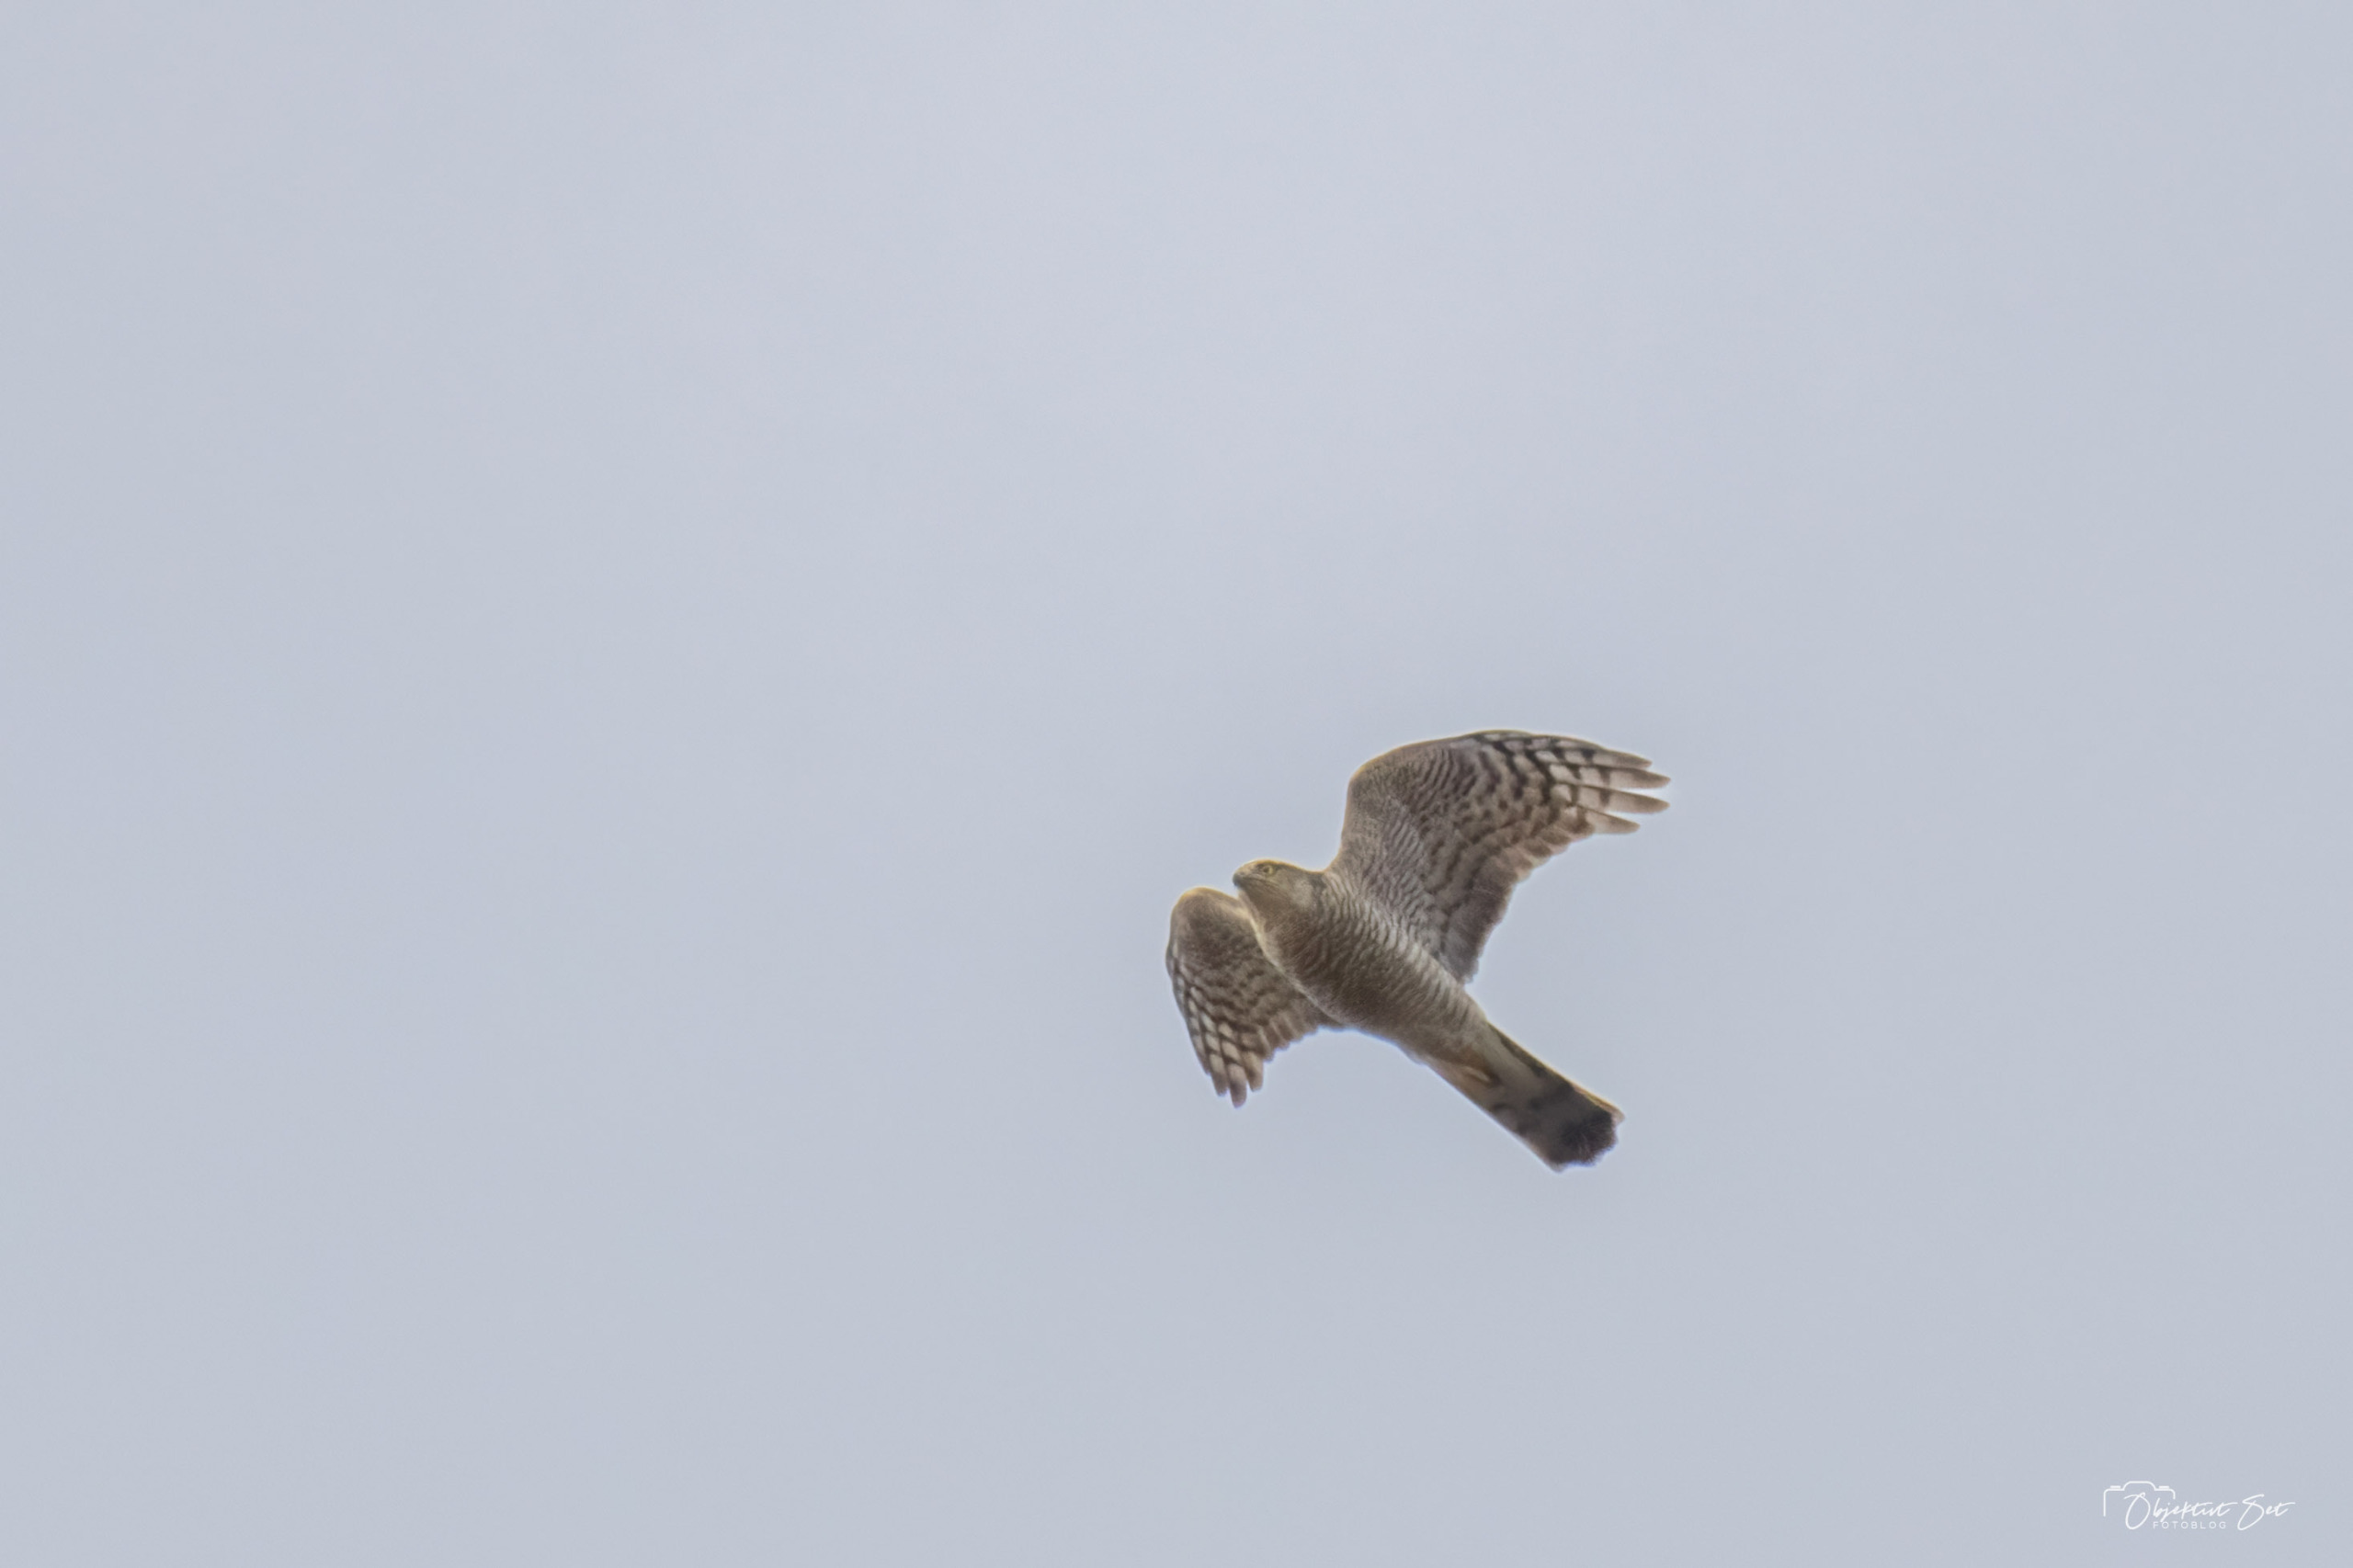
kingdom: Animalia
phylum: Chordata
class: Aves
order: Accipitriformes
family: Accipitridae
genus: Accipiter
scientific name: Accipiter nisus
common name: Spurvehøg
